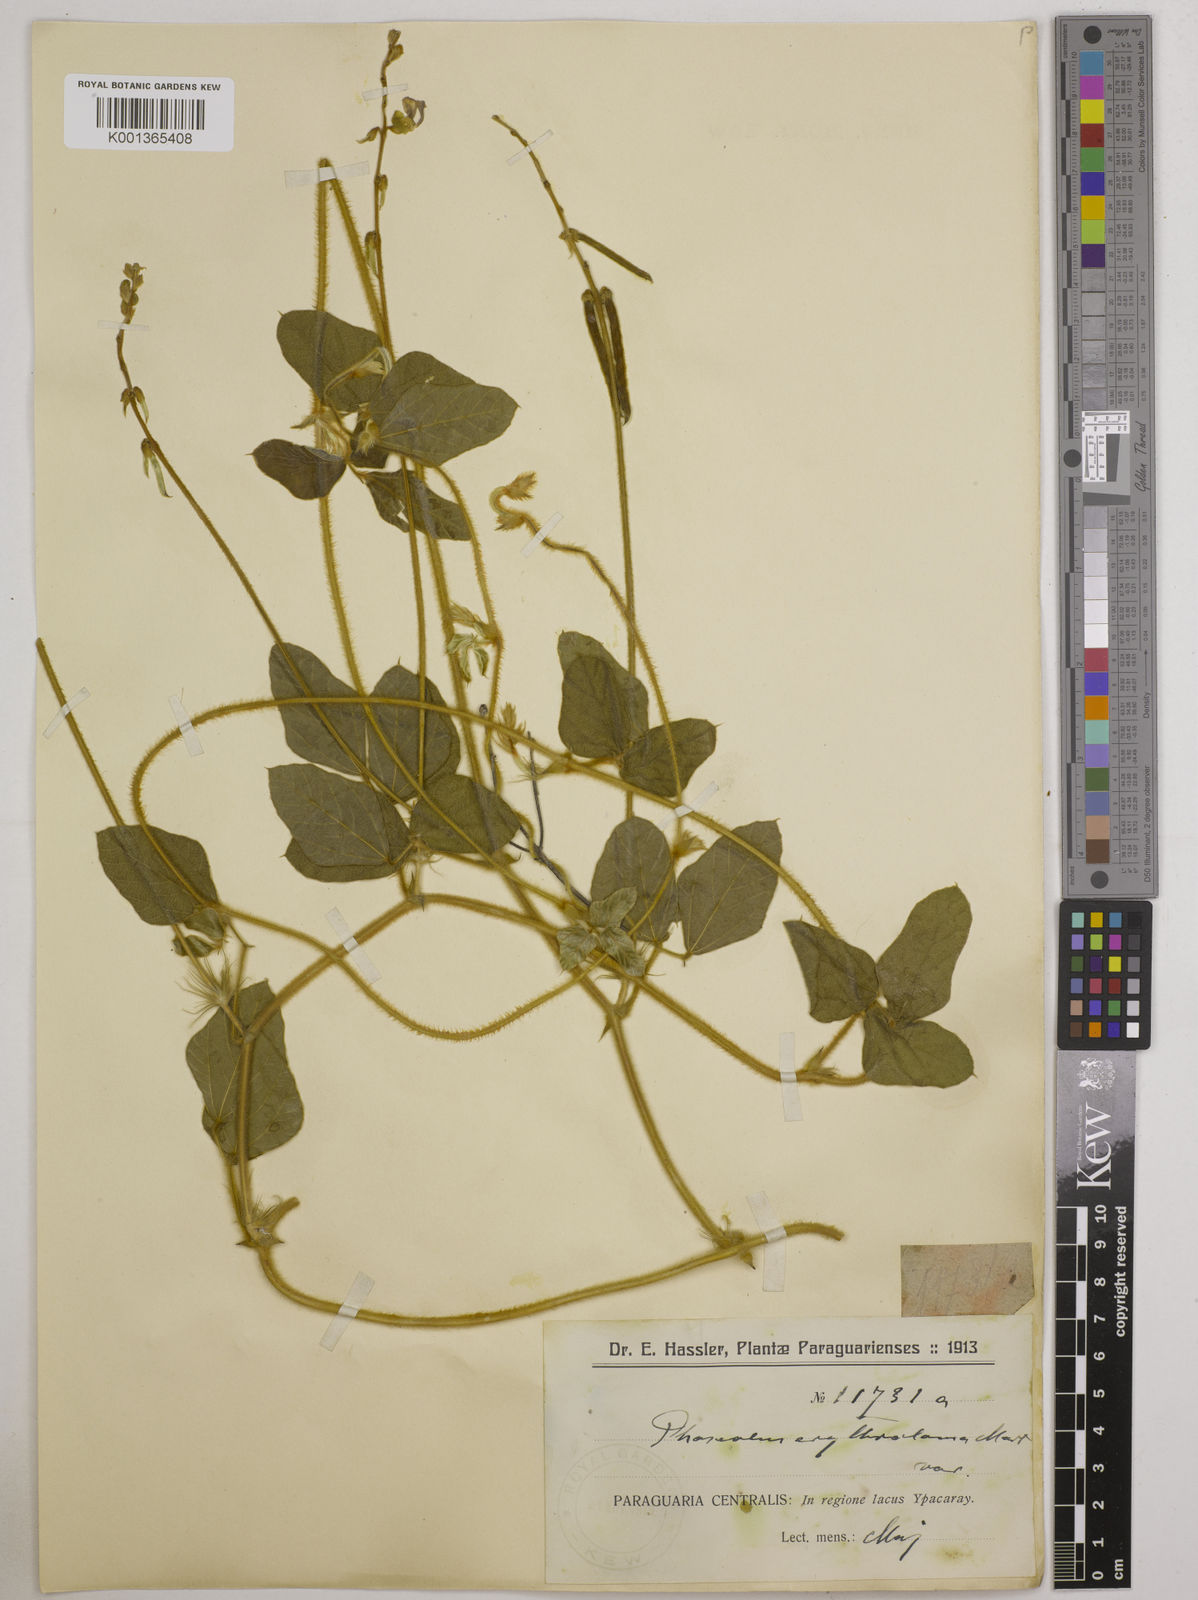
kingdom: Plantae
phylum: Tracheophyta
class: Magnoliopsida
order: Fabales
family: Fabaceae
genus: Macroptilium
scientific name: Macroptilium erythroloma
